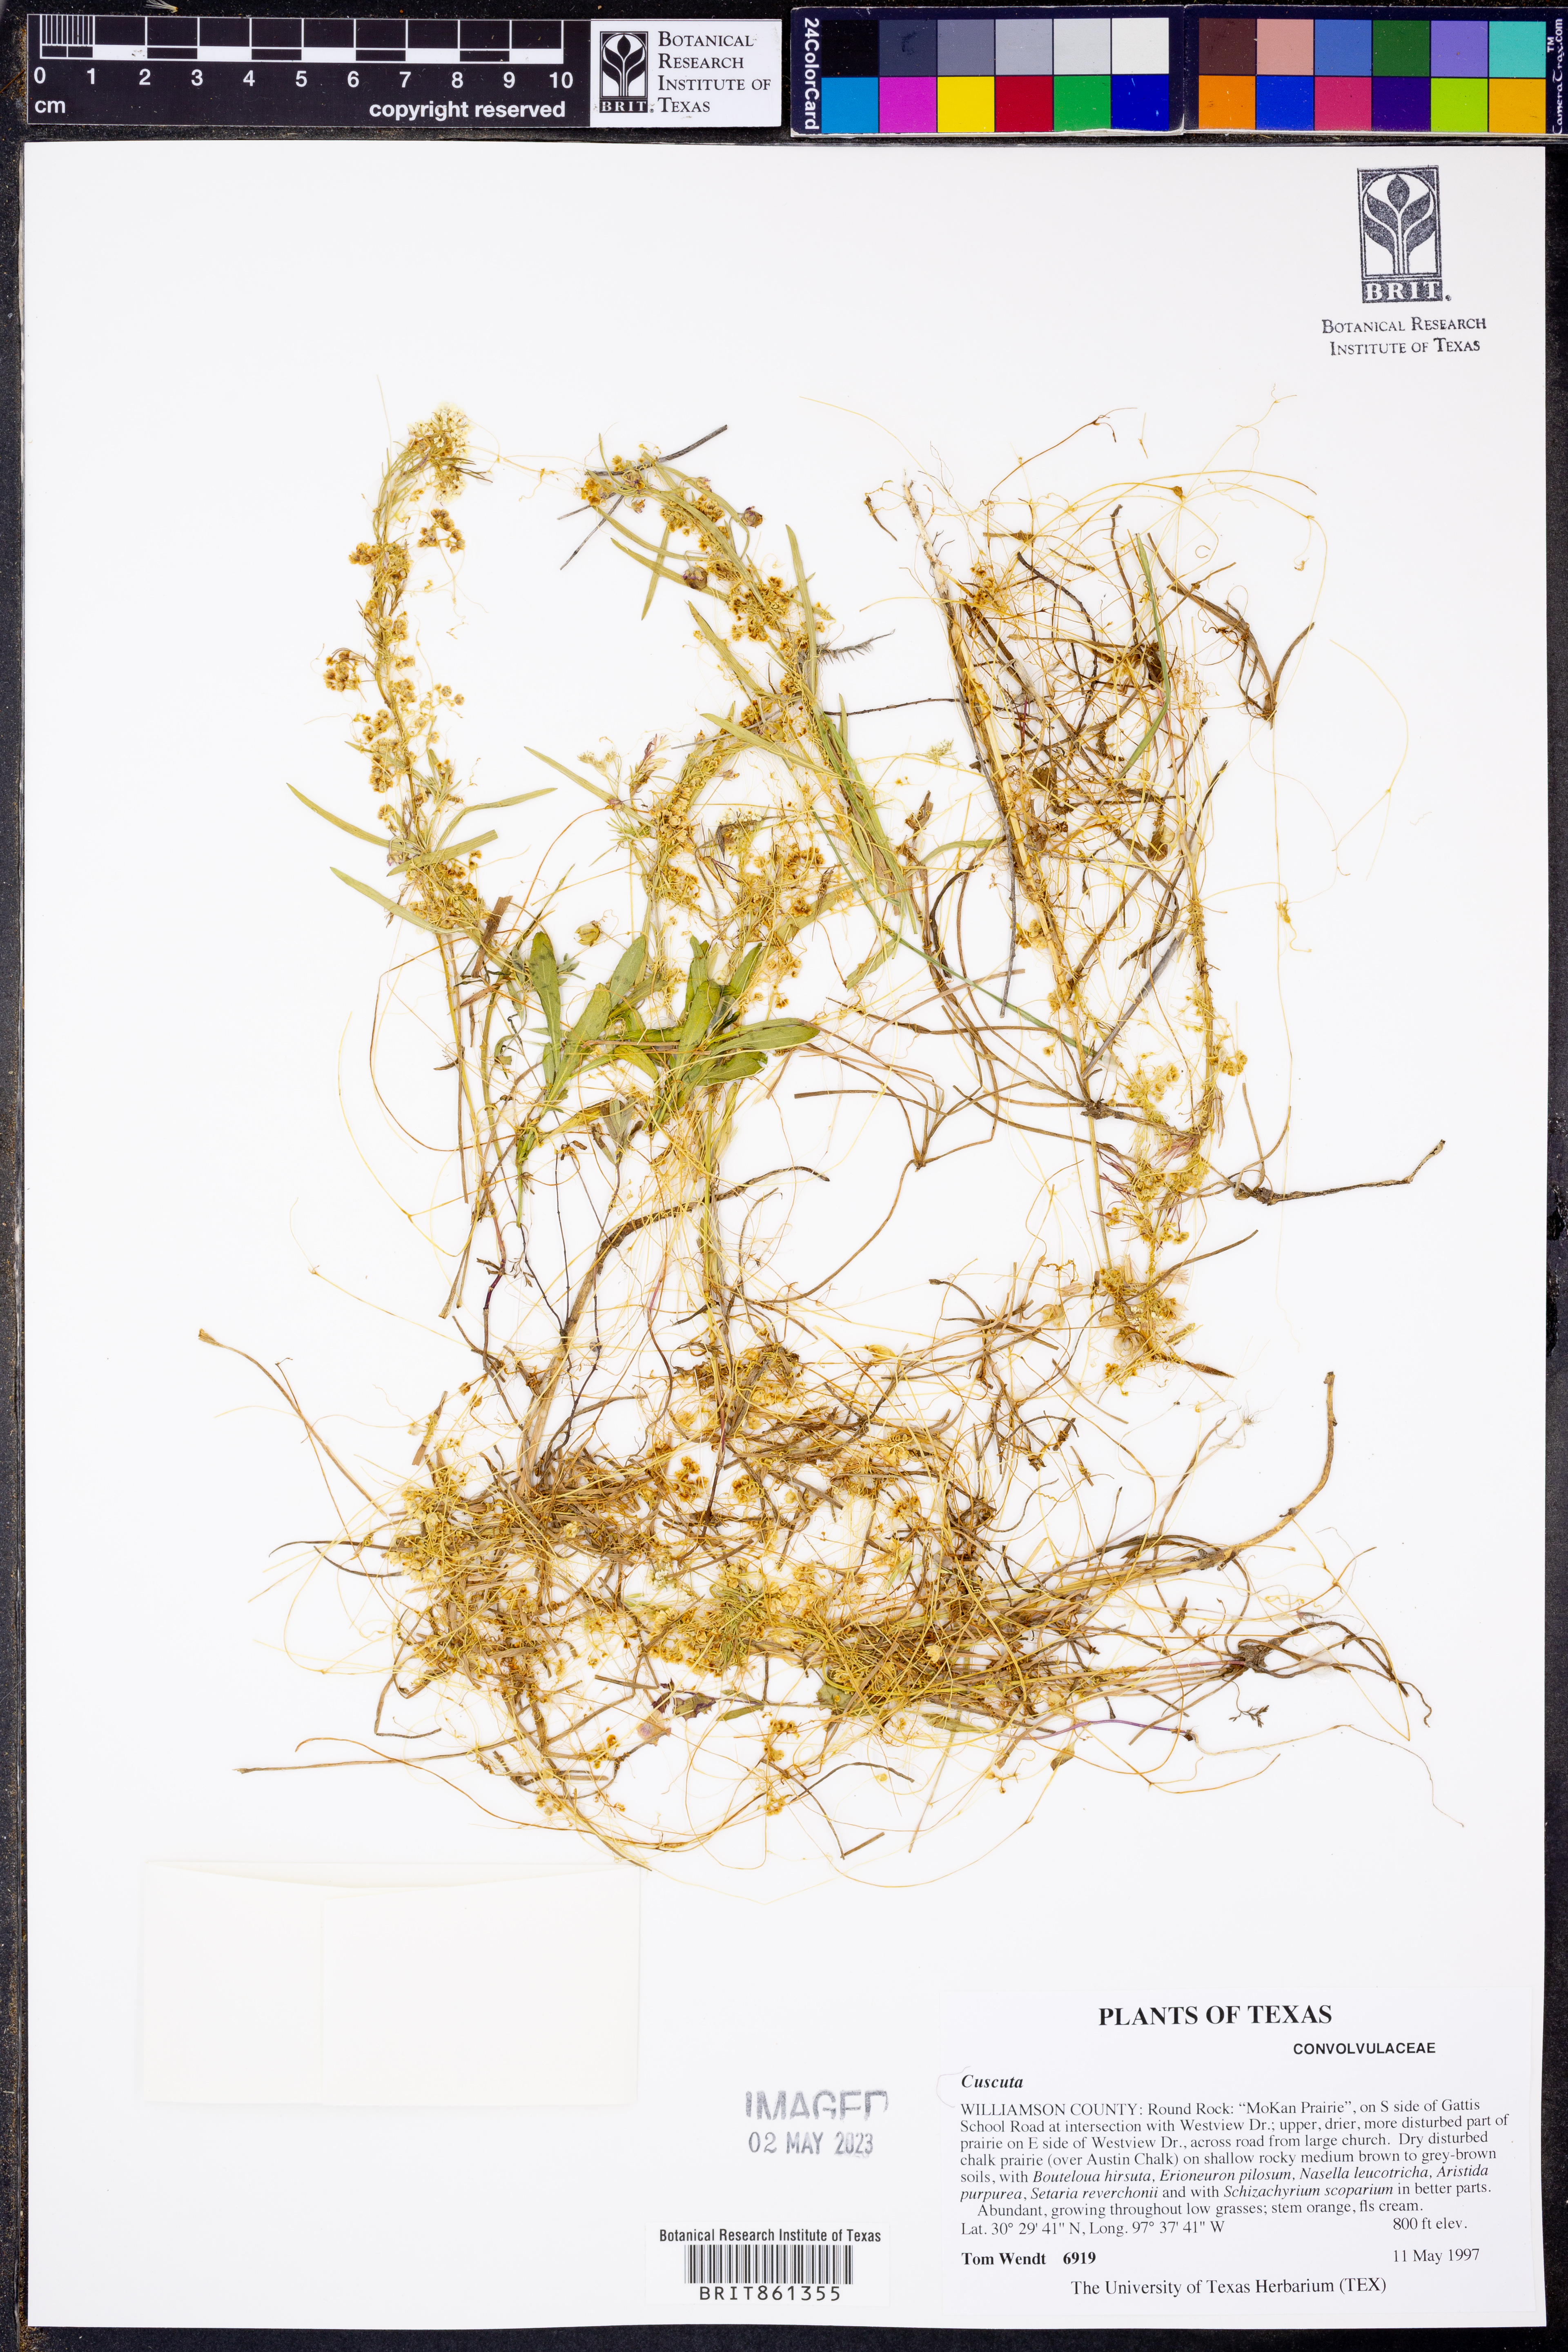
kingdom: Plantae
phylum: Tracheophyta
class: Magnoliopsida
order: Solanales
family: Convolvulaceae
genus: Cuscuta
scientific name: Cuscuta
